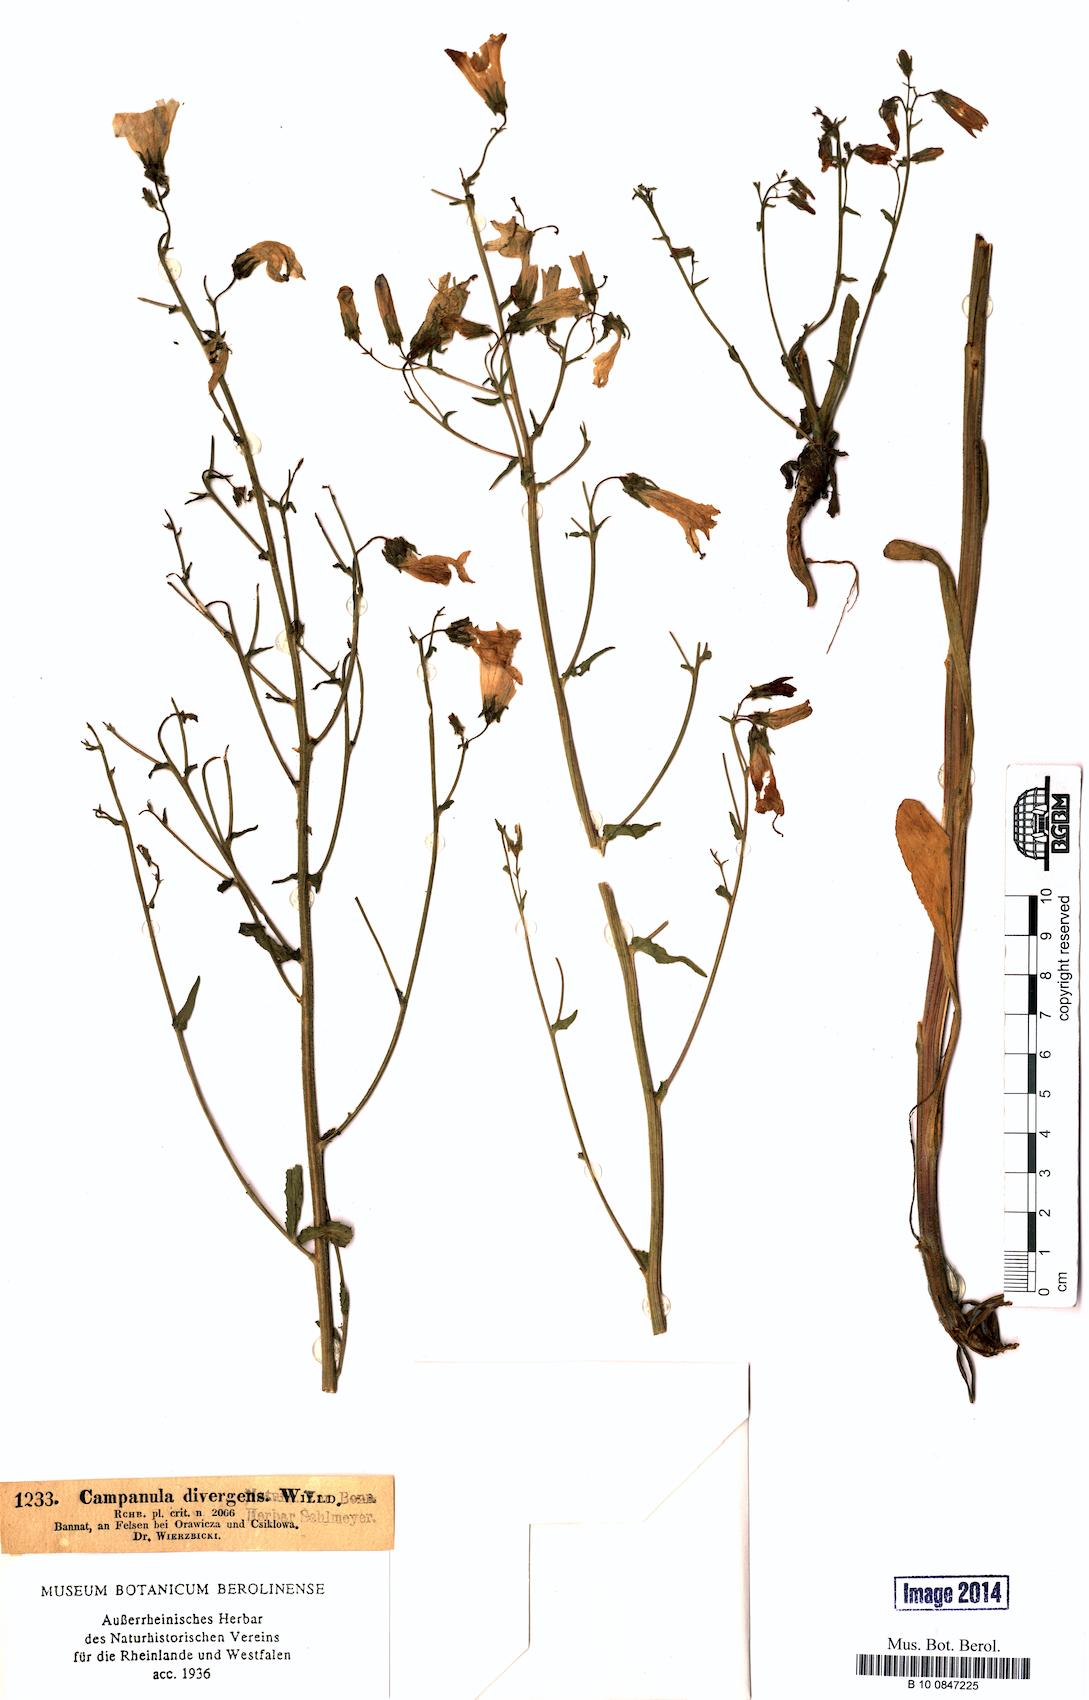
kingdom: Plantae
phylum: Tracheophyta
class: Magnoliopsida
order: Asterales
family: Campanulaceae
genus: Campanula
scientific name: Campanula sibirica
